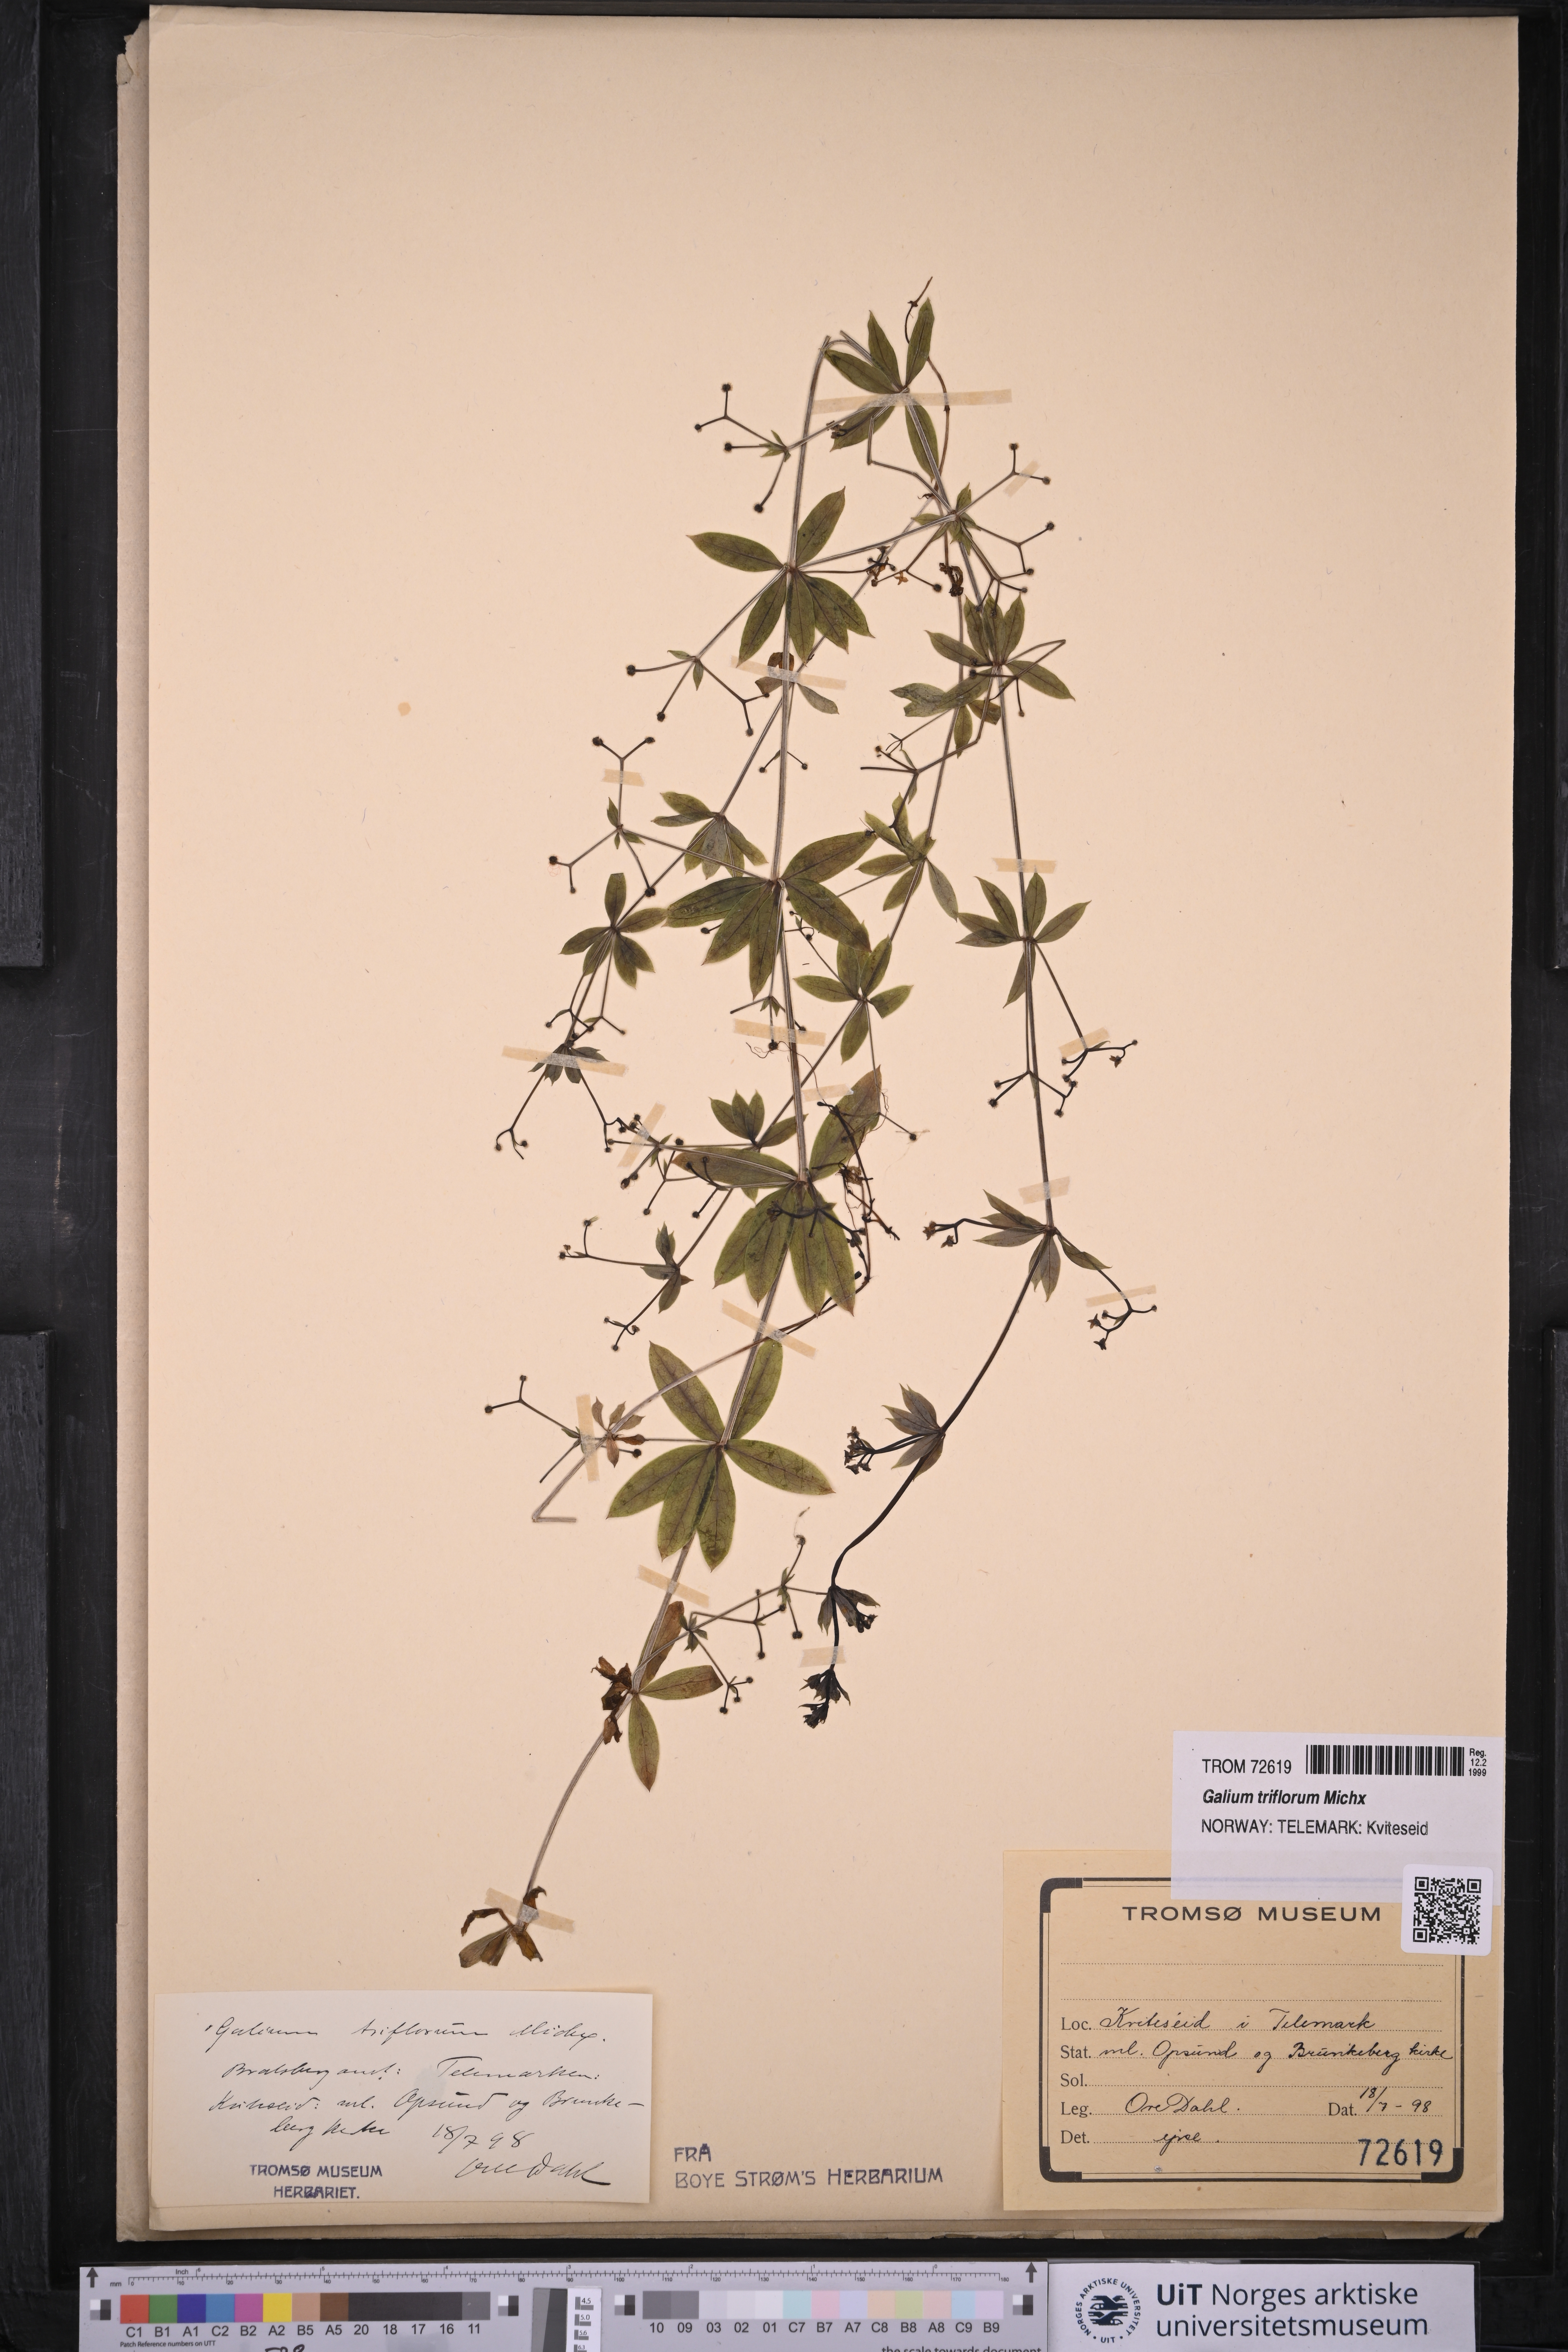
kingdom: Plantae
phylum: Tracheophyta
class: Magnoliopsida
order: Gentianales
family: Rubiaceae
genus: Galium
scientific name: Galium triflorum
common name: Fragrant bedstraw
